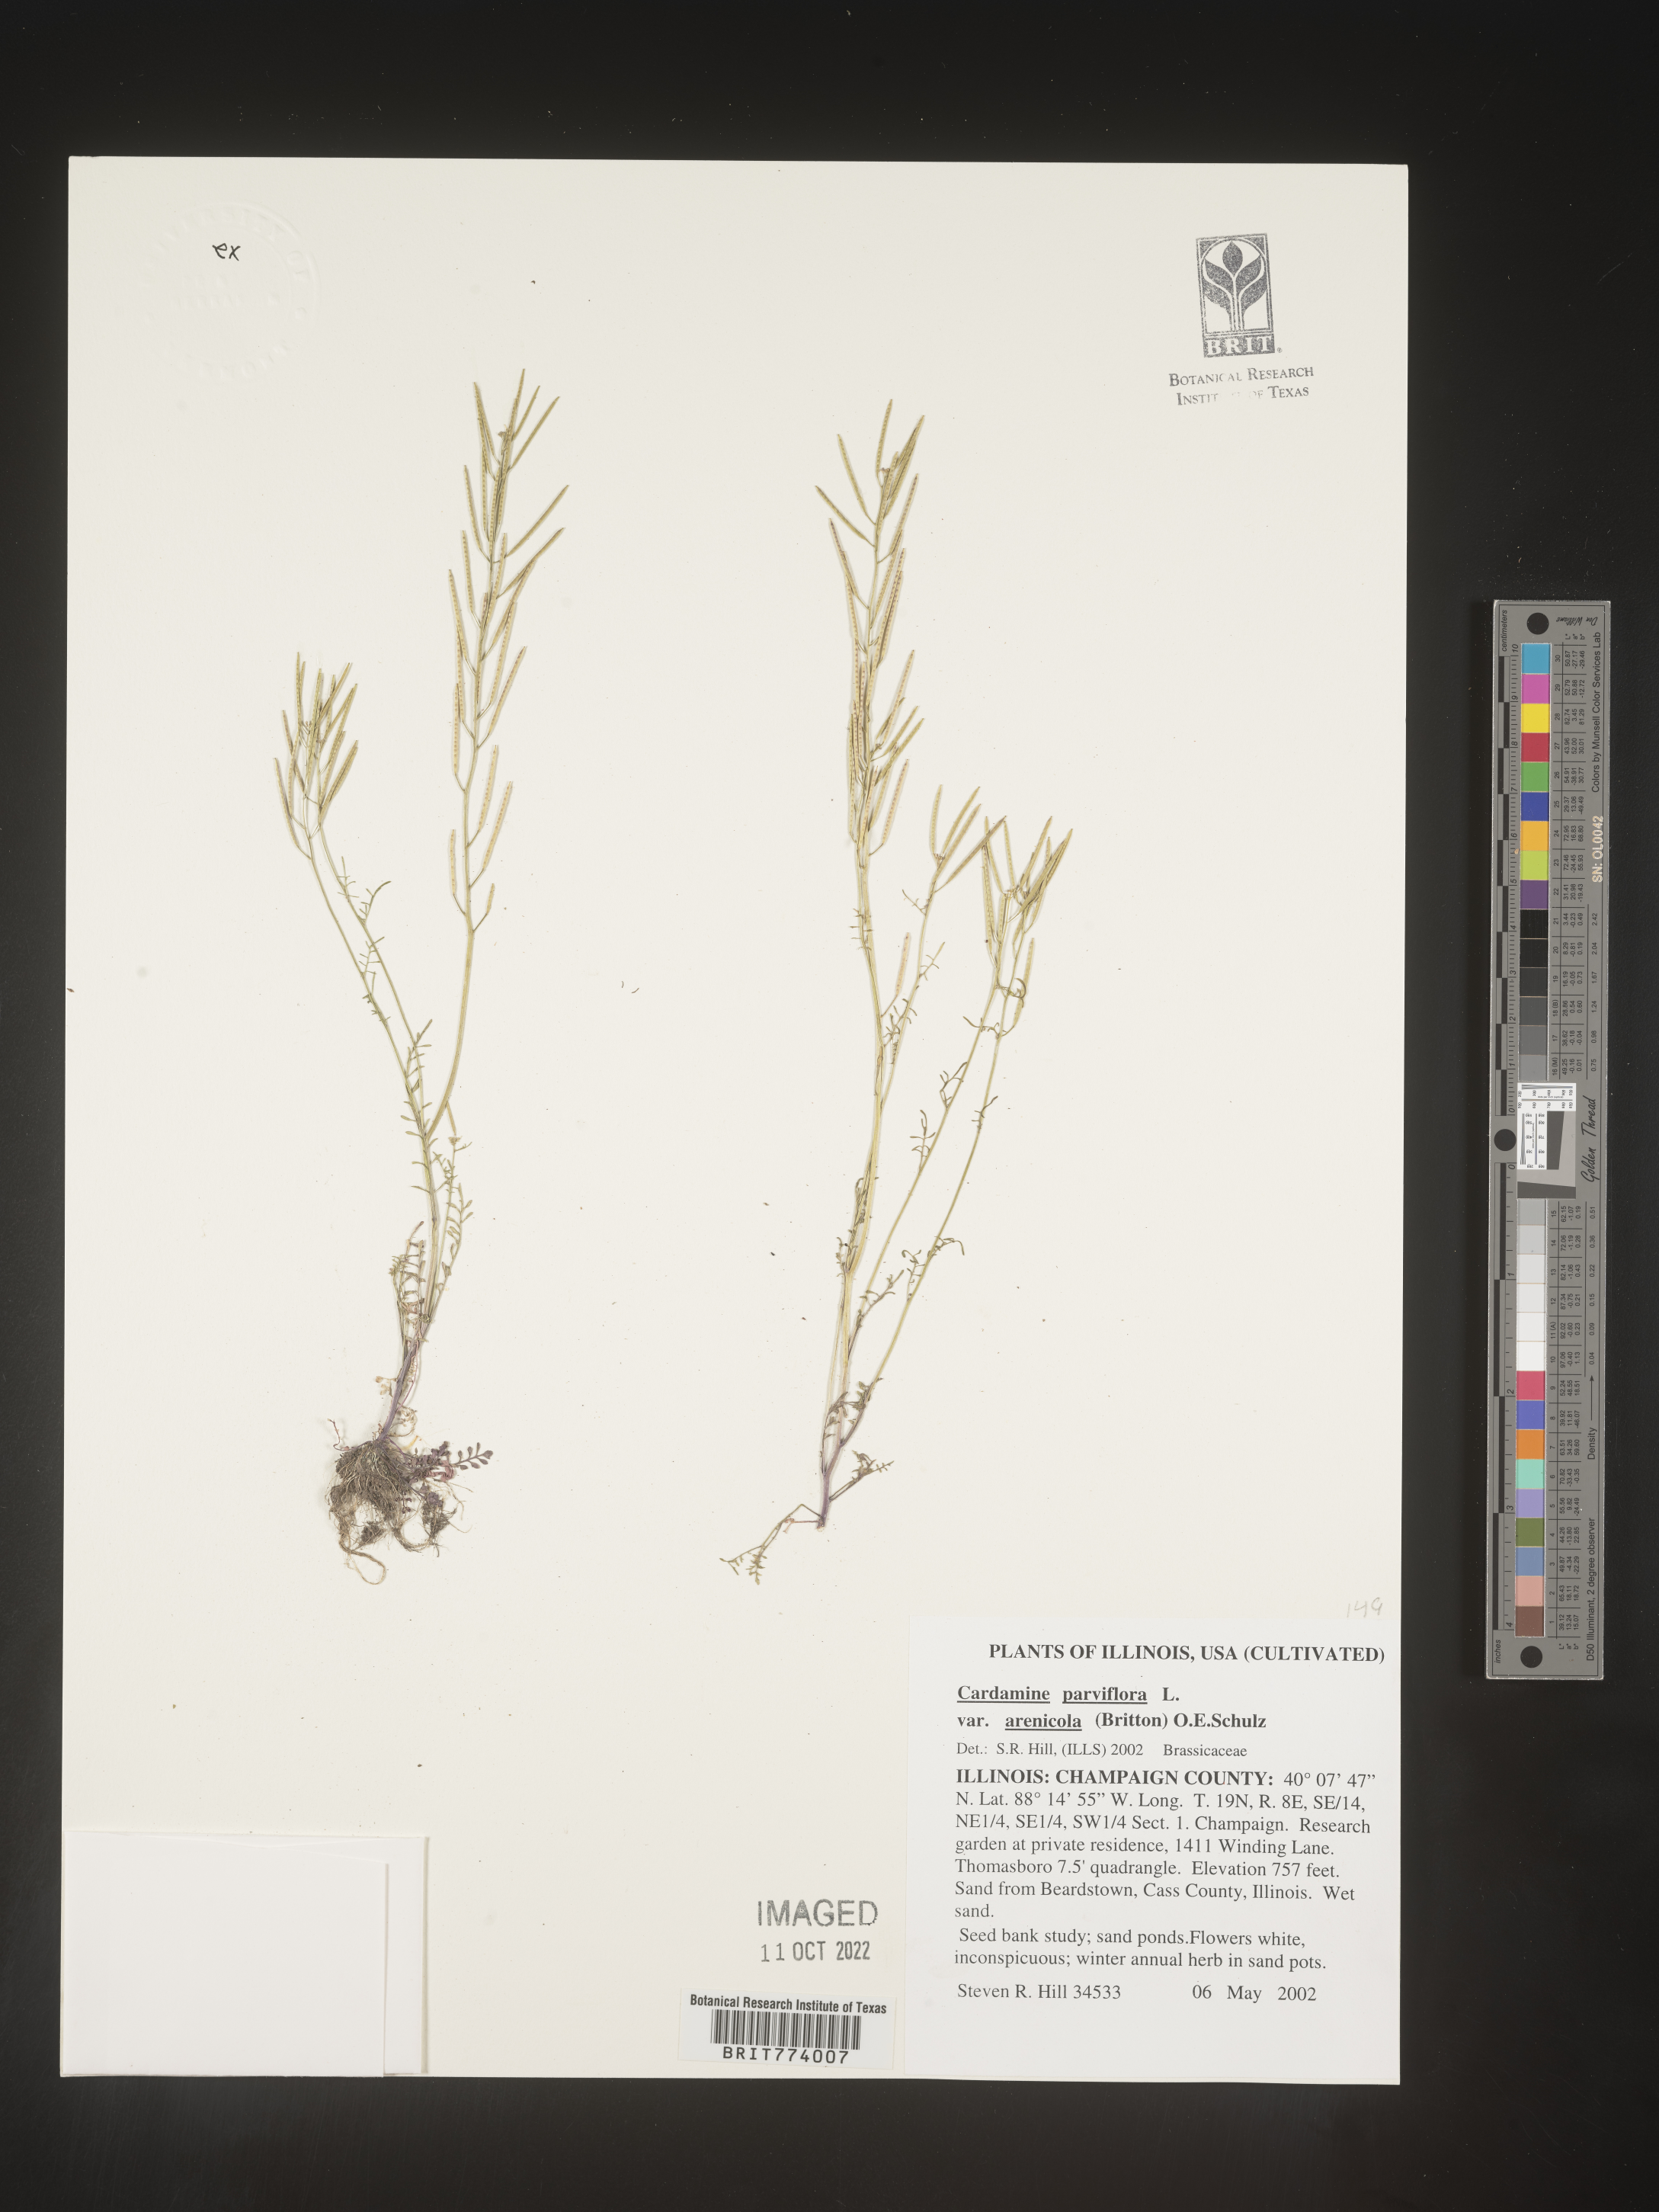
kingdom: Plantae
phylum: Tracheophyta
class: Magnoliopsida
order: Brassicales
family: Brassicaceae
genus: Cardamine
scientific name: Cardamine
